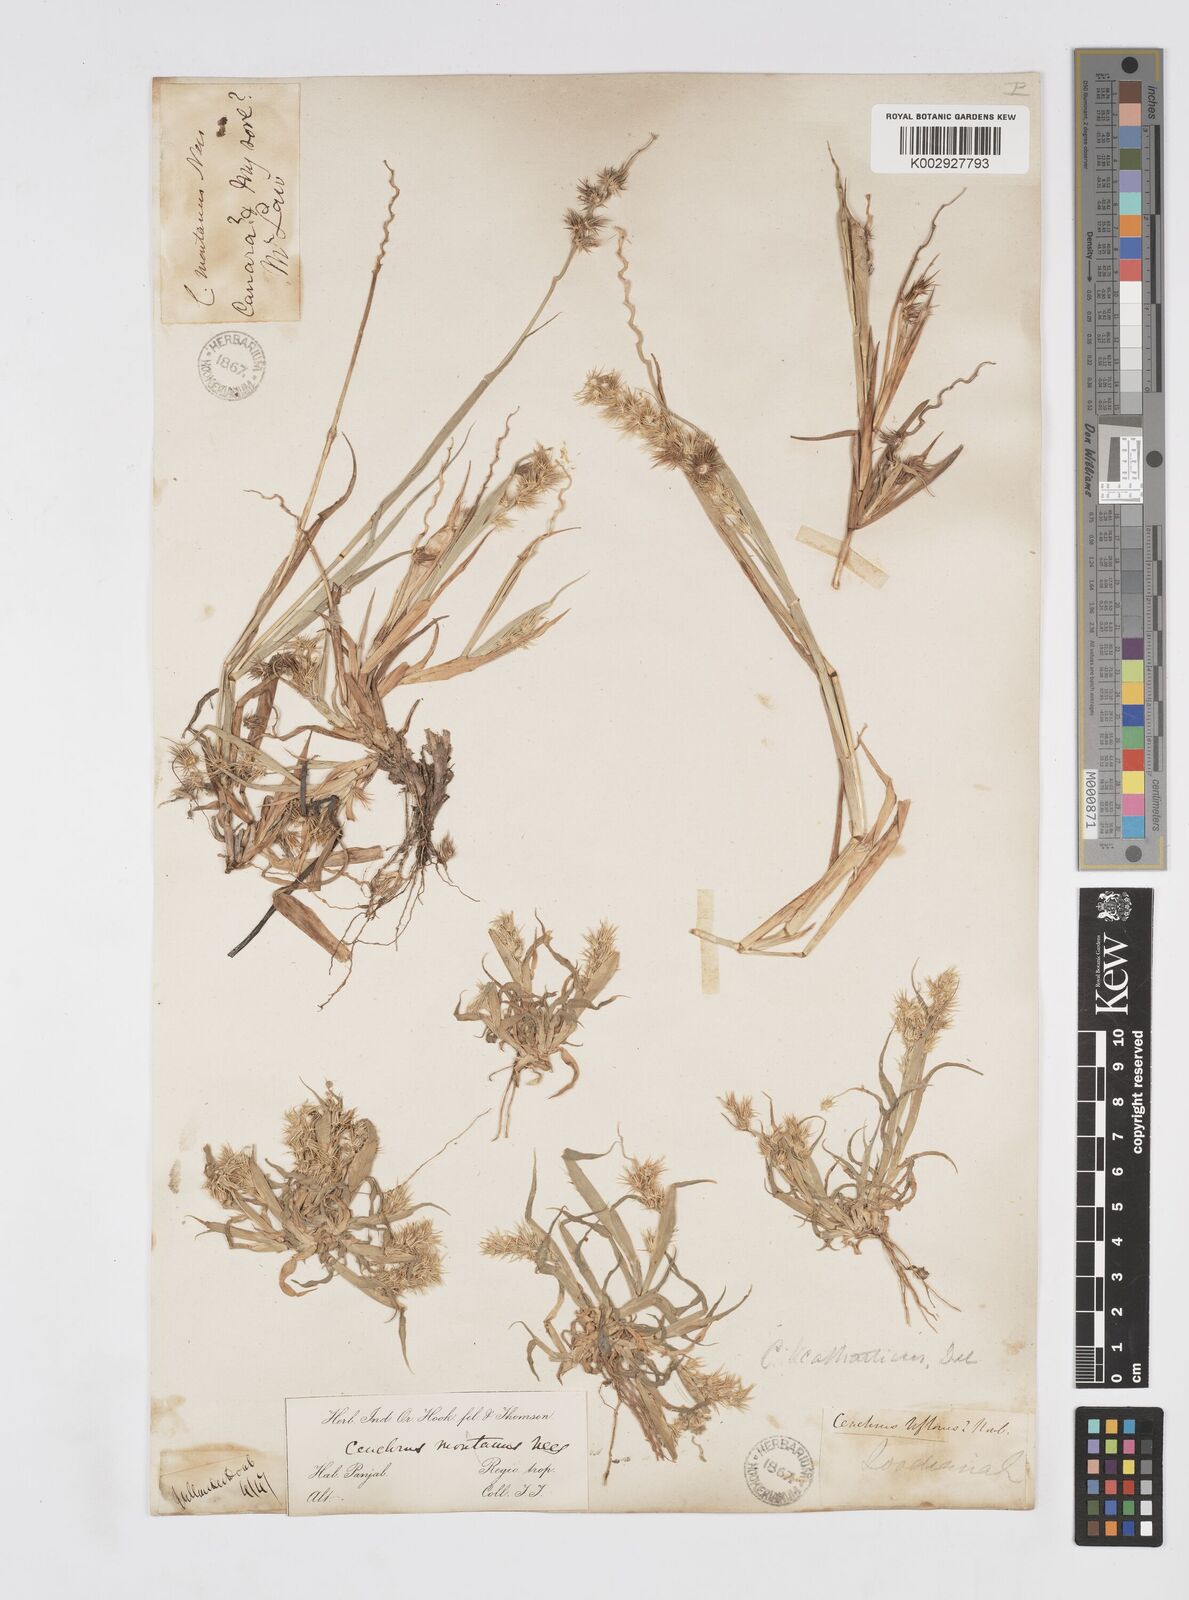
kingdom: Plantae
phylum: Tracheophyta
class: Liliopsida
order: Poales
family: Poaceae
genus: Cenchrus
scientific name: Cenchrus biflorus
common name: Indian sandbur
